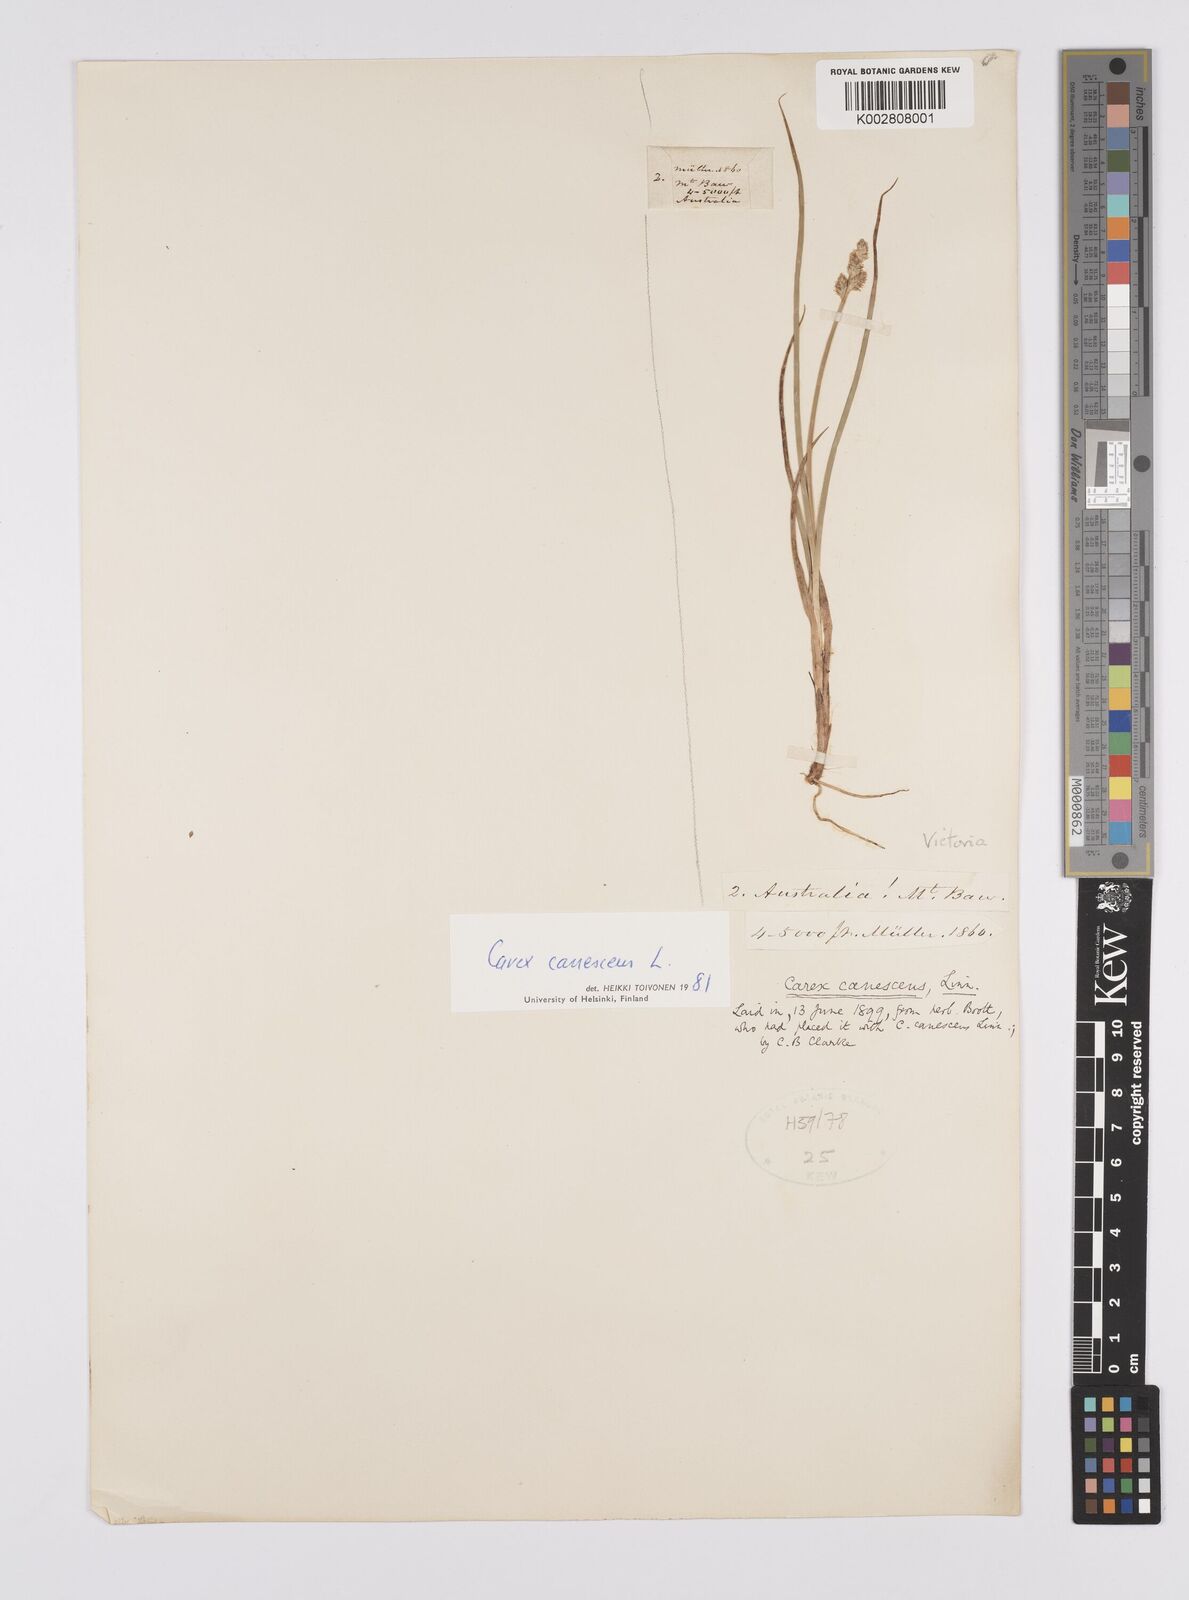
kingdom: Plantae
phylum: Tracheophyta
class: Liliopsida
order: Poales
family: Cyperaceae
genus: Carex
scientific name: Carex curta
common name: White sedge
